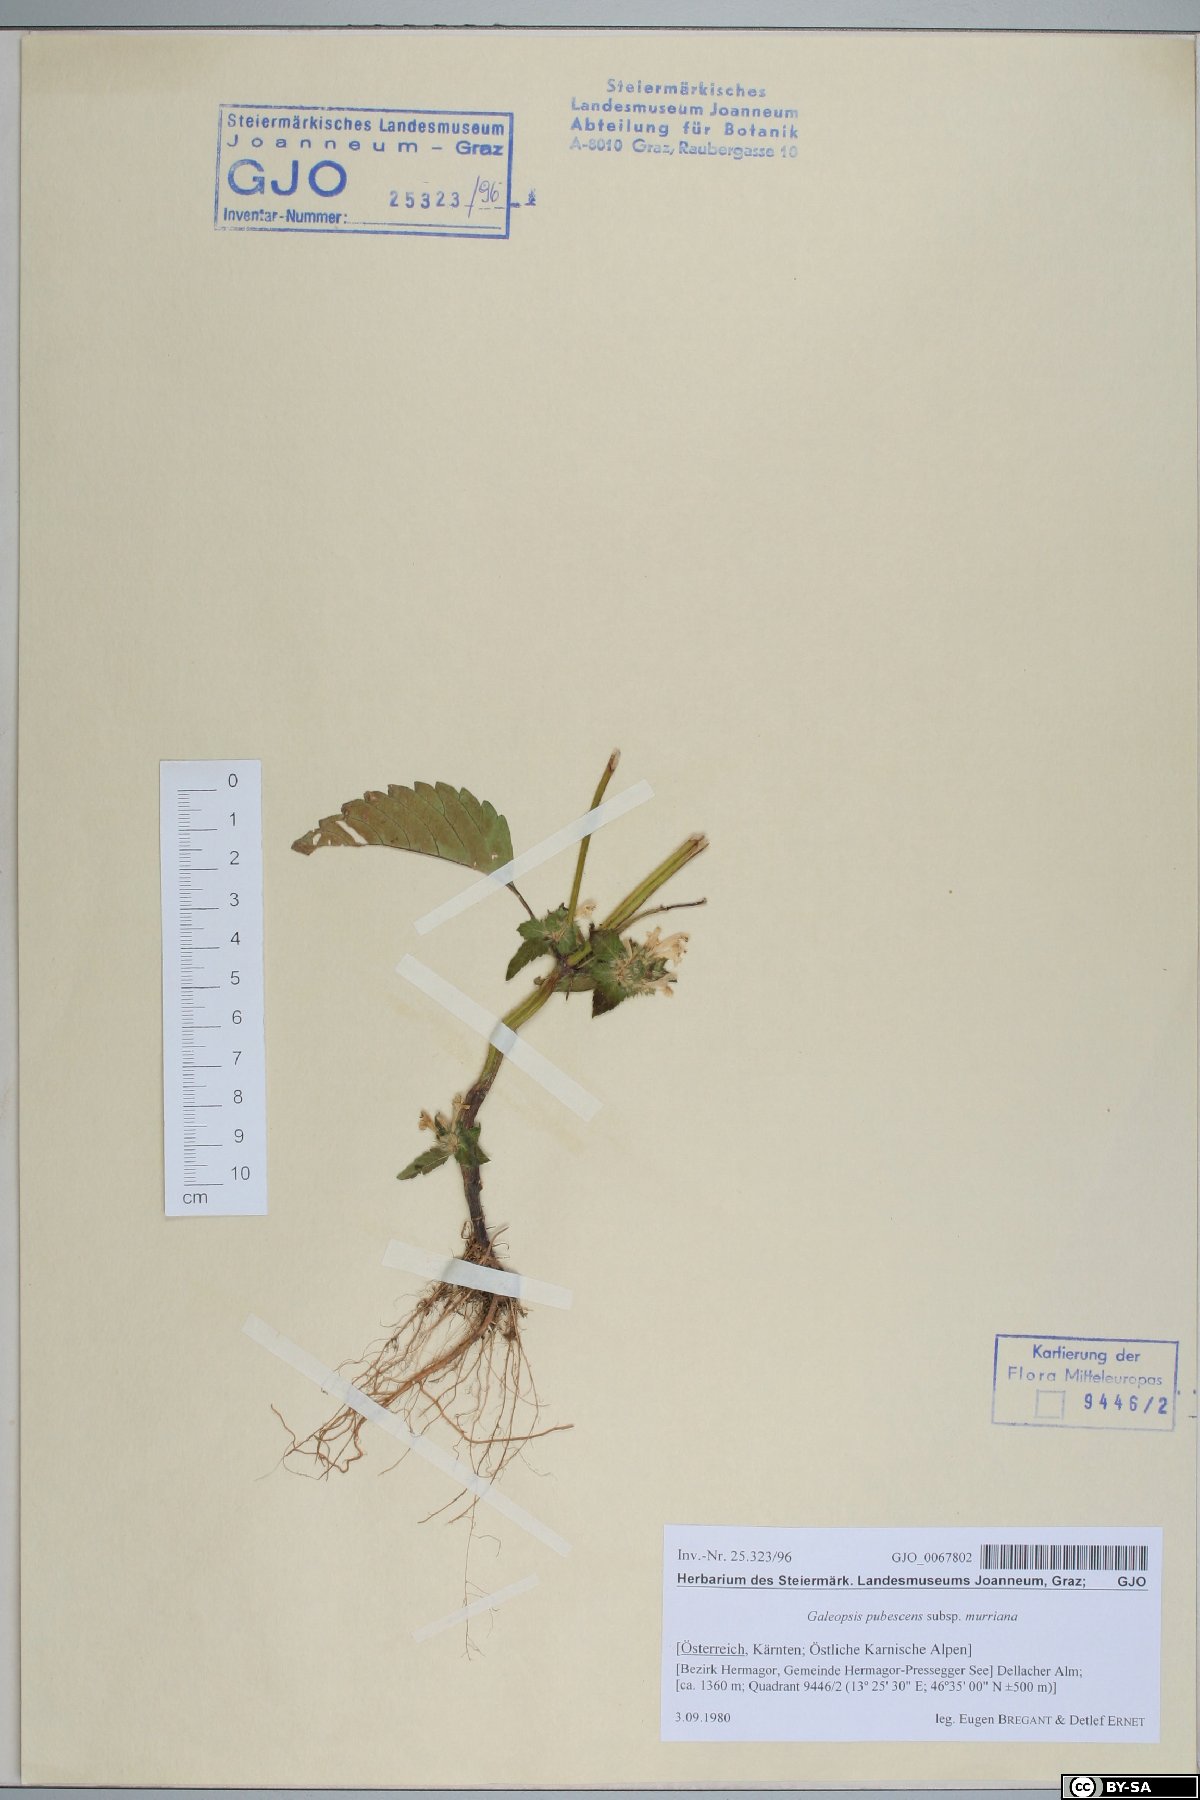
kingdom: Plantae
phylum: Tracheophyta
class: Magnoliopsida
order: Lamiales
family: Lamiaceae
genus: Galeopsis
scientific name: Galeopsis pubescens
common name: Downy hemp-nettle
